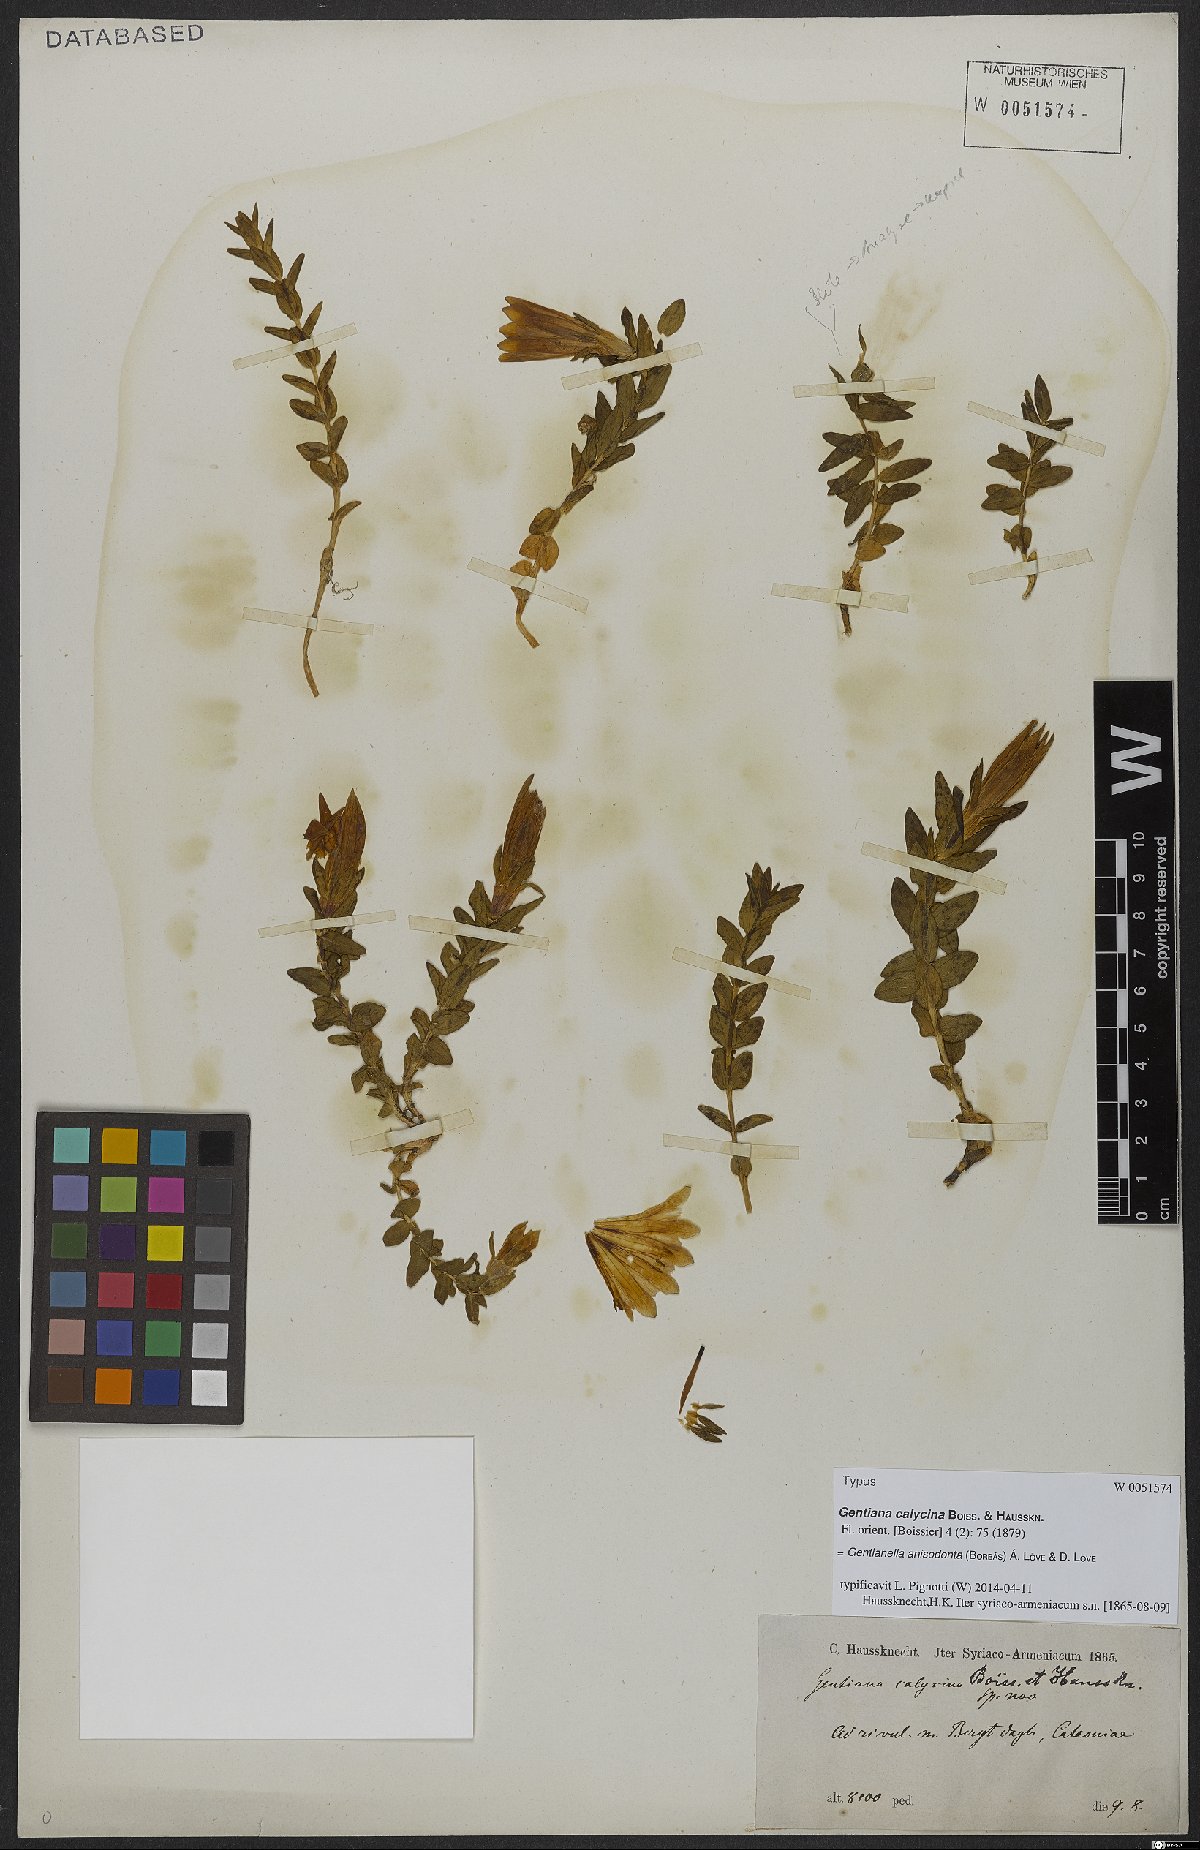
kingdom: Plantae
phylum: Tracheophyta
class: Magnoliopsida
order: Gentianales
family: Gentianaceae
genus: Gentianella
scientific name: Gentianella anisodonta
